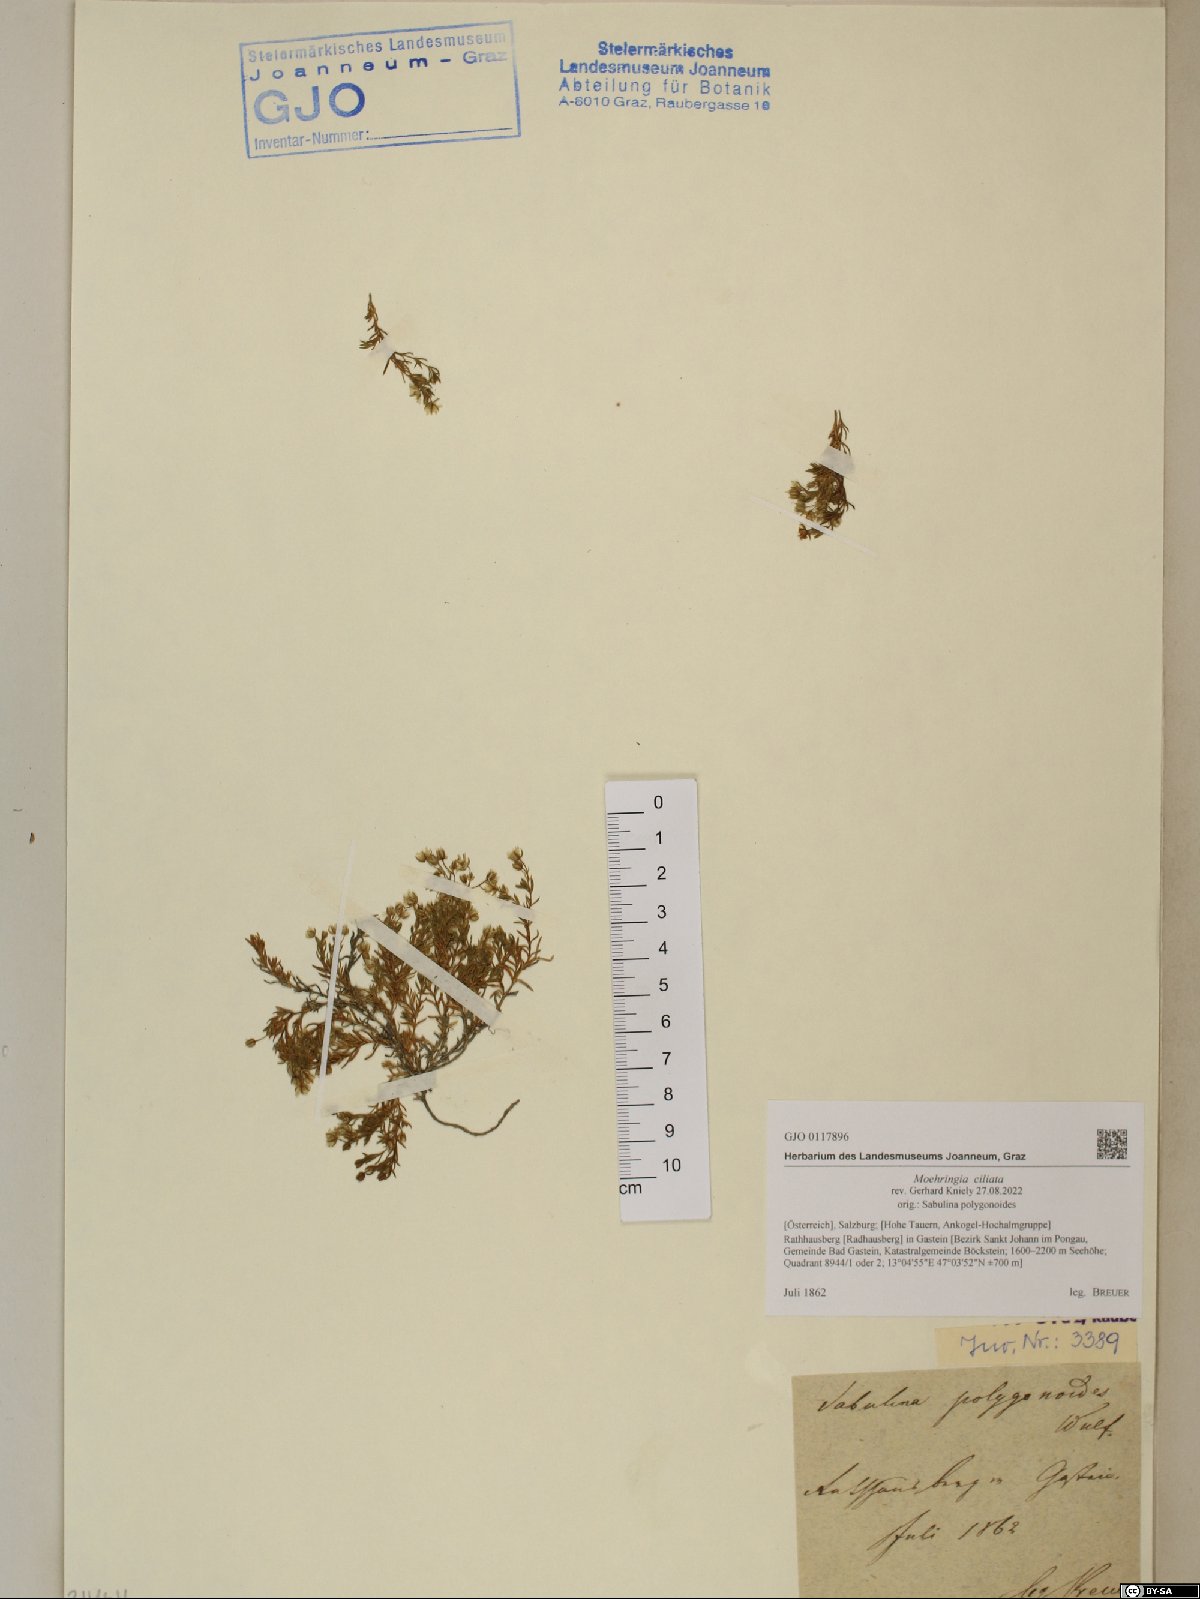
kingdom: Plantae
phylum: Tracheophyta
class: Magnoliopsida
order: Caryophyllales
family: Caryophyllaceae
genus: Moehringia
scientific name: Moehringia ciliata
